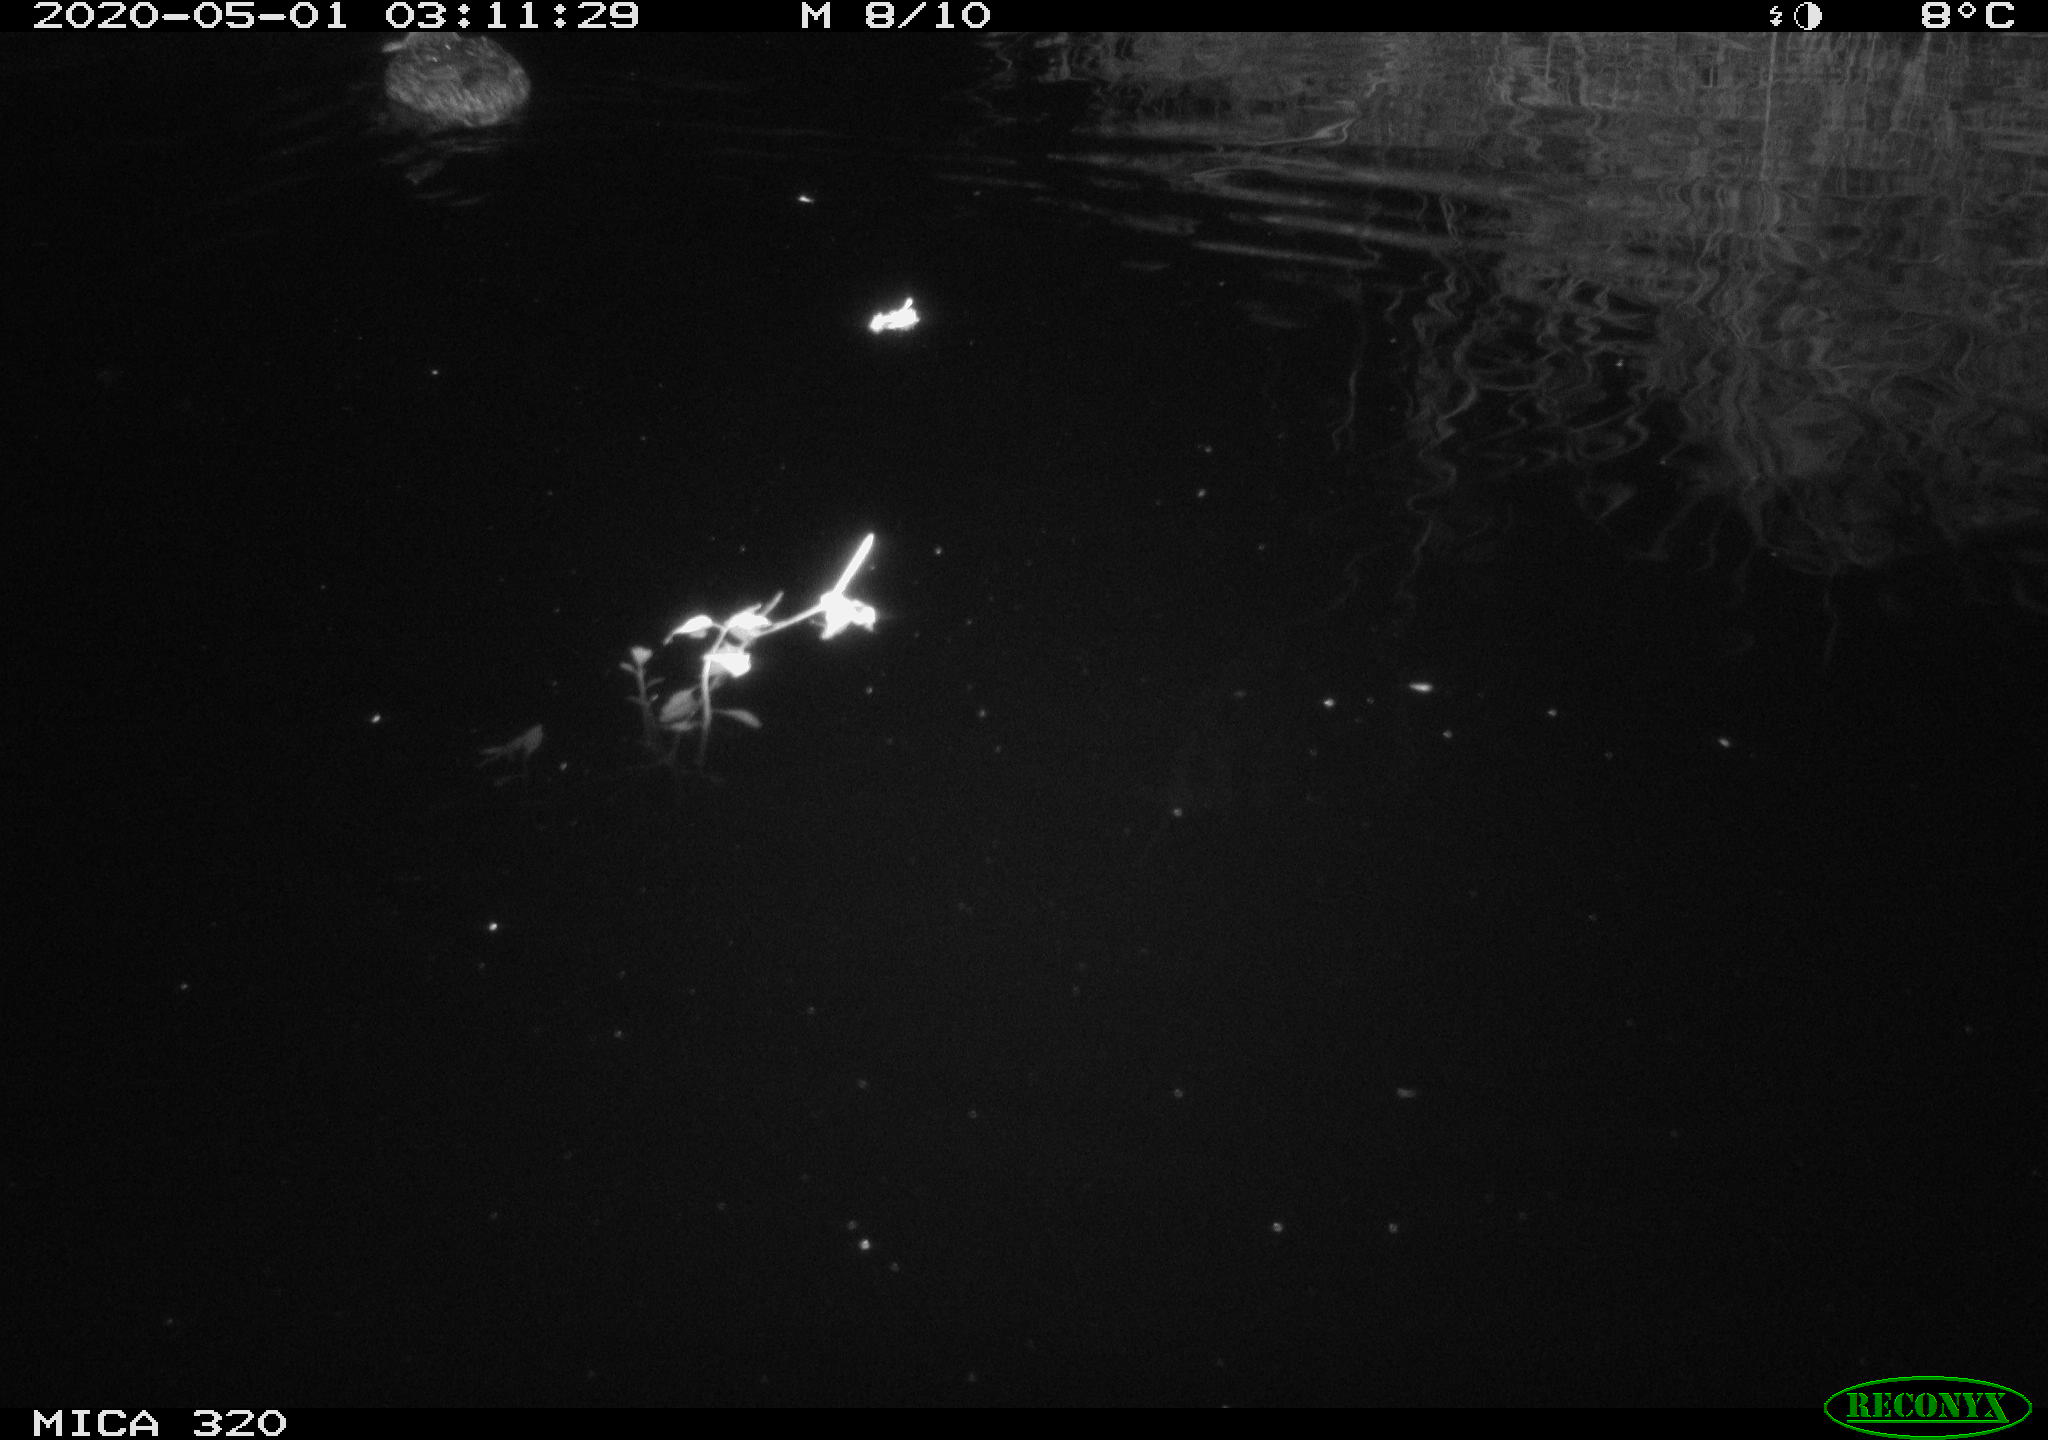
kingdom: Animalia
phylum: Chordata
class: Aves
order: Anseriformes
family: Anatidae
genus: Anas
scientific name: Anas platyrhynchos
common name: Mallard
